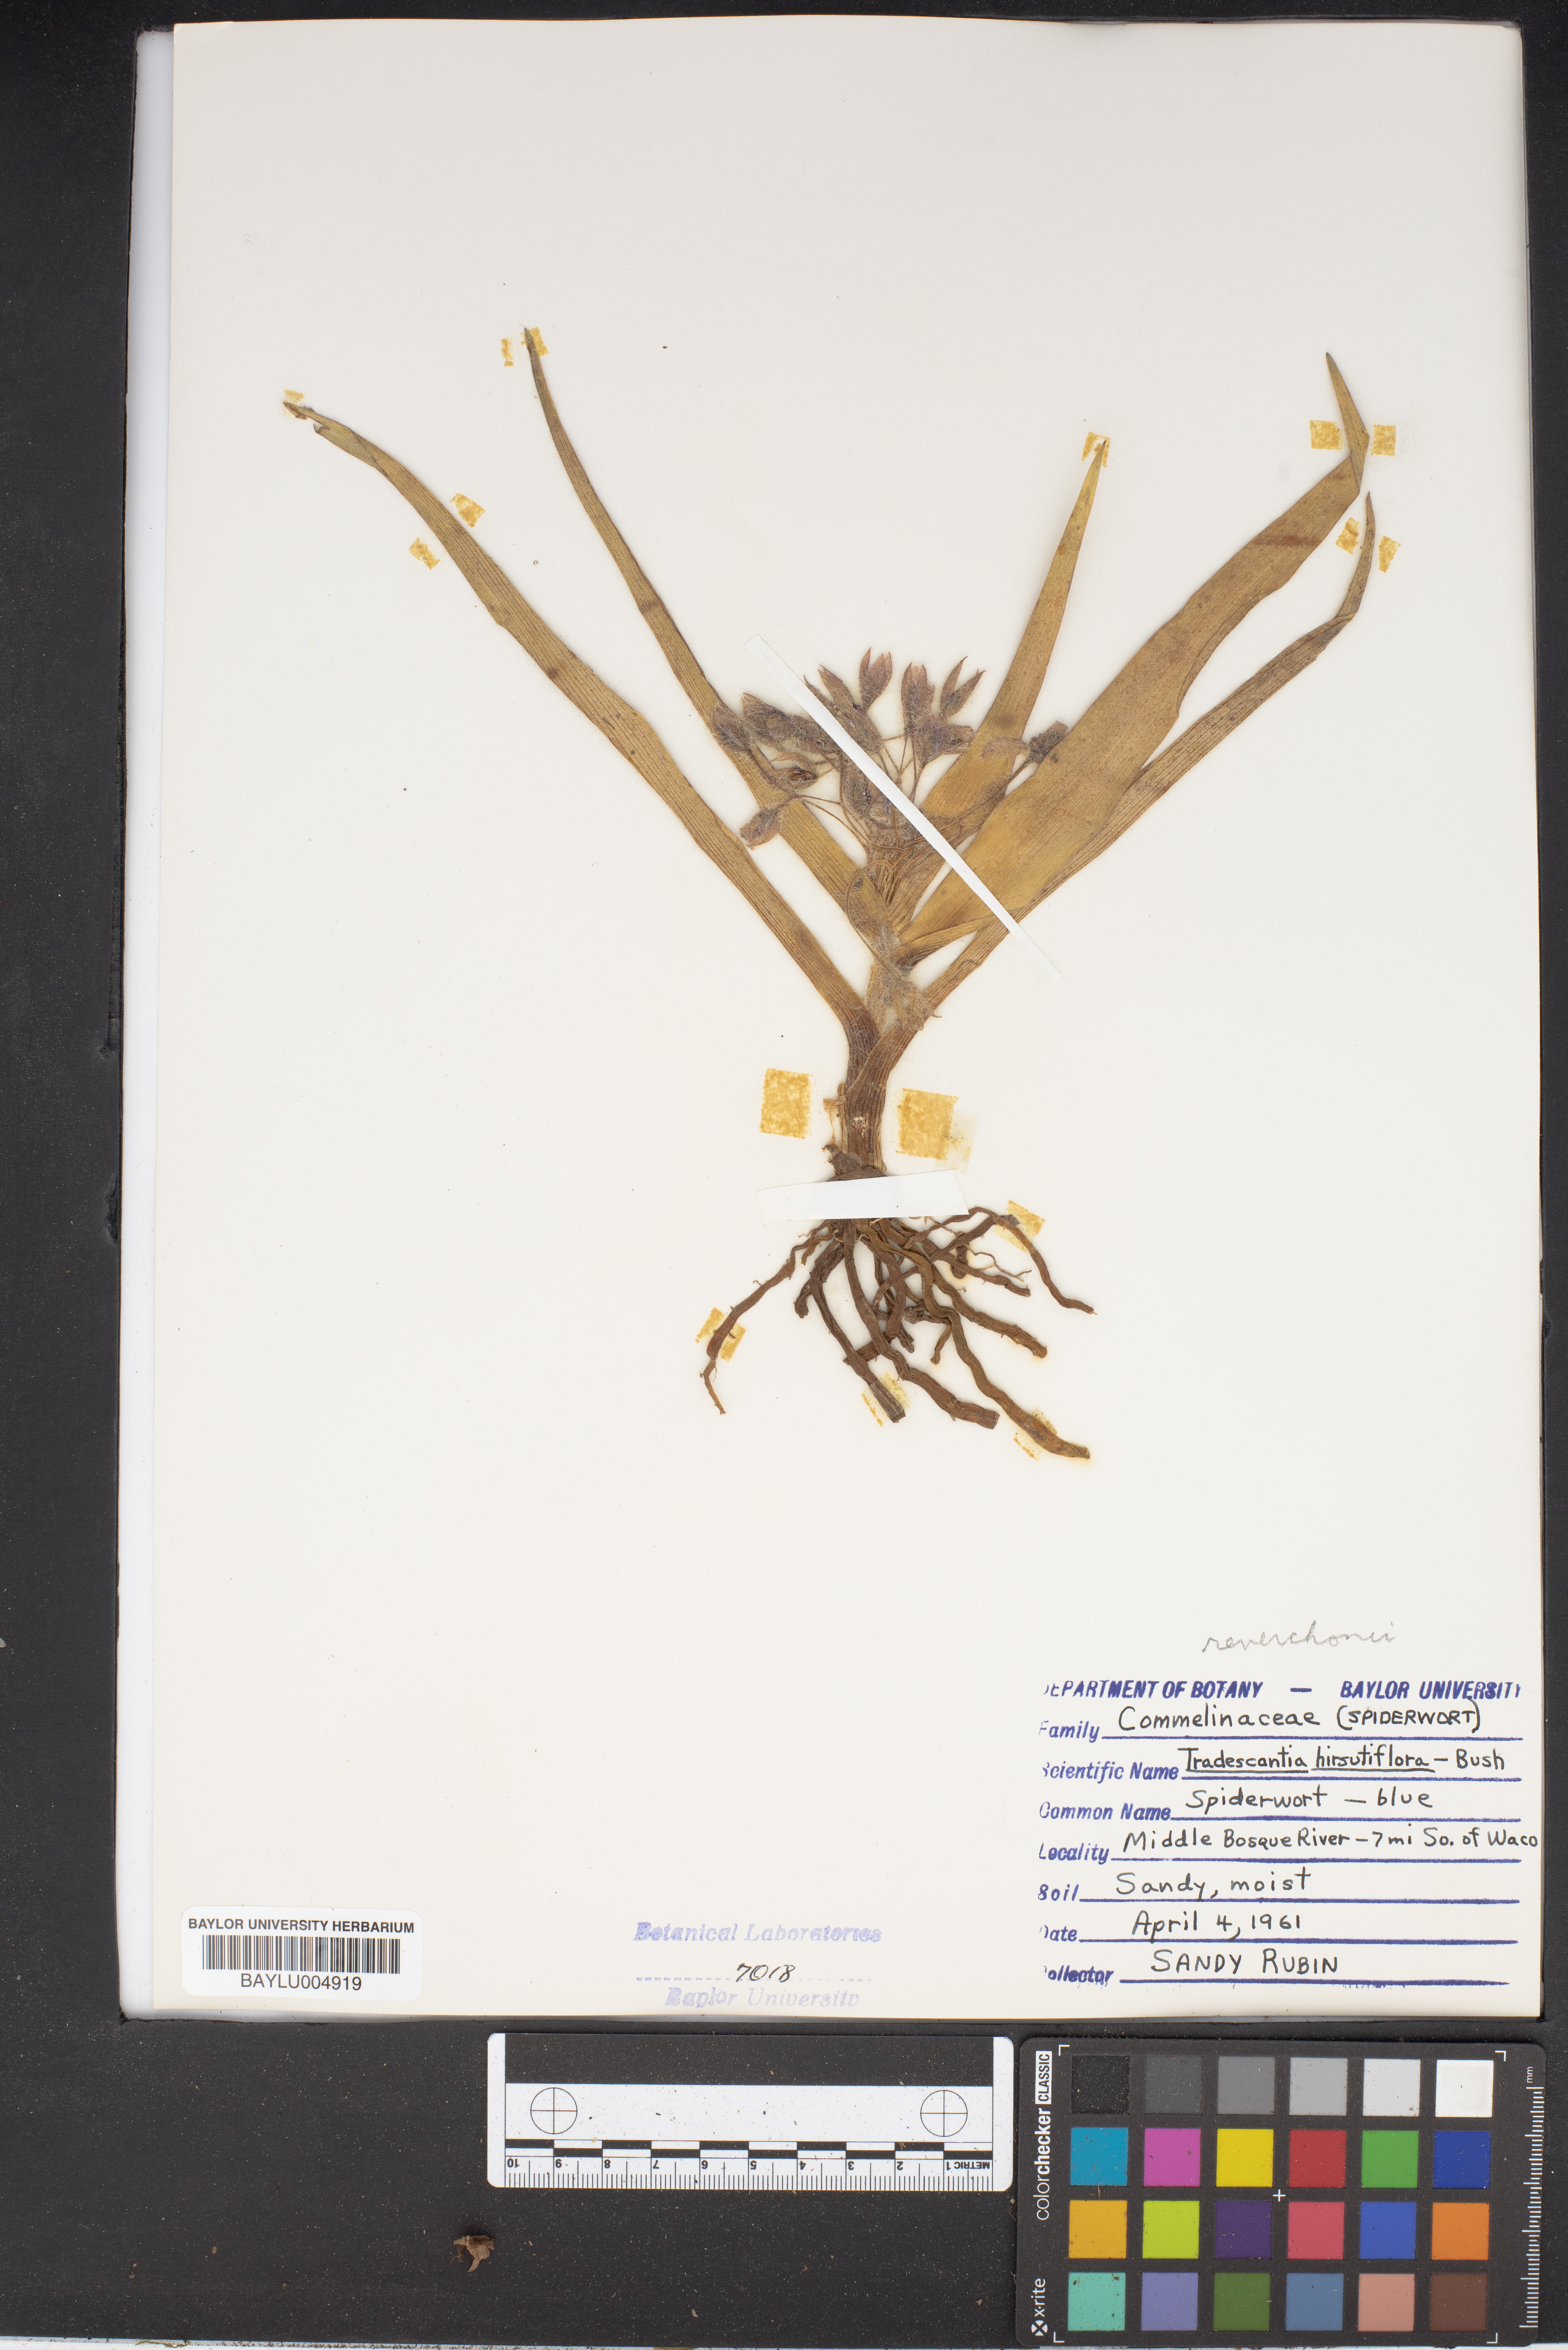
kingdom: Plantae
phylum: Tracheophyta
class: Liliopsida
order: Commelinales
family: Commelinaceae
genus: Tradescantia
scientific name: Tradescantia hirsutiflora
